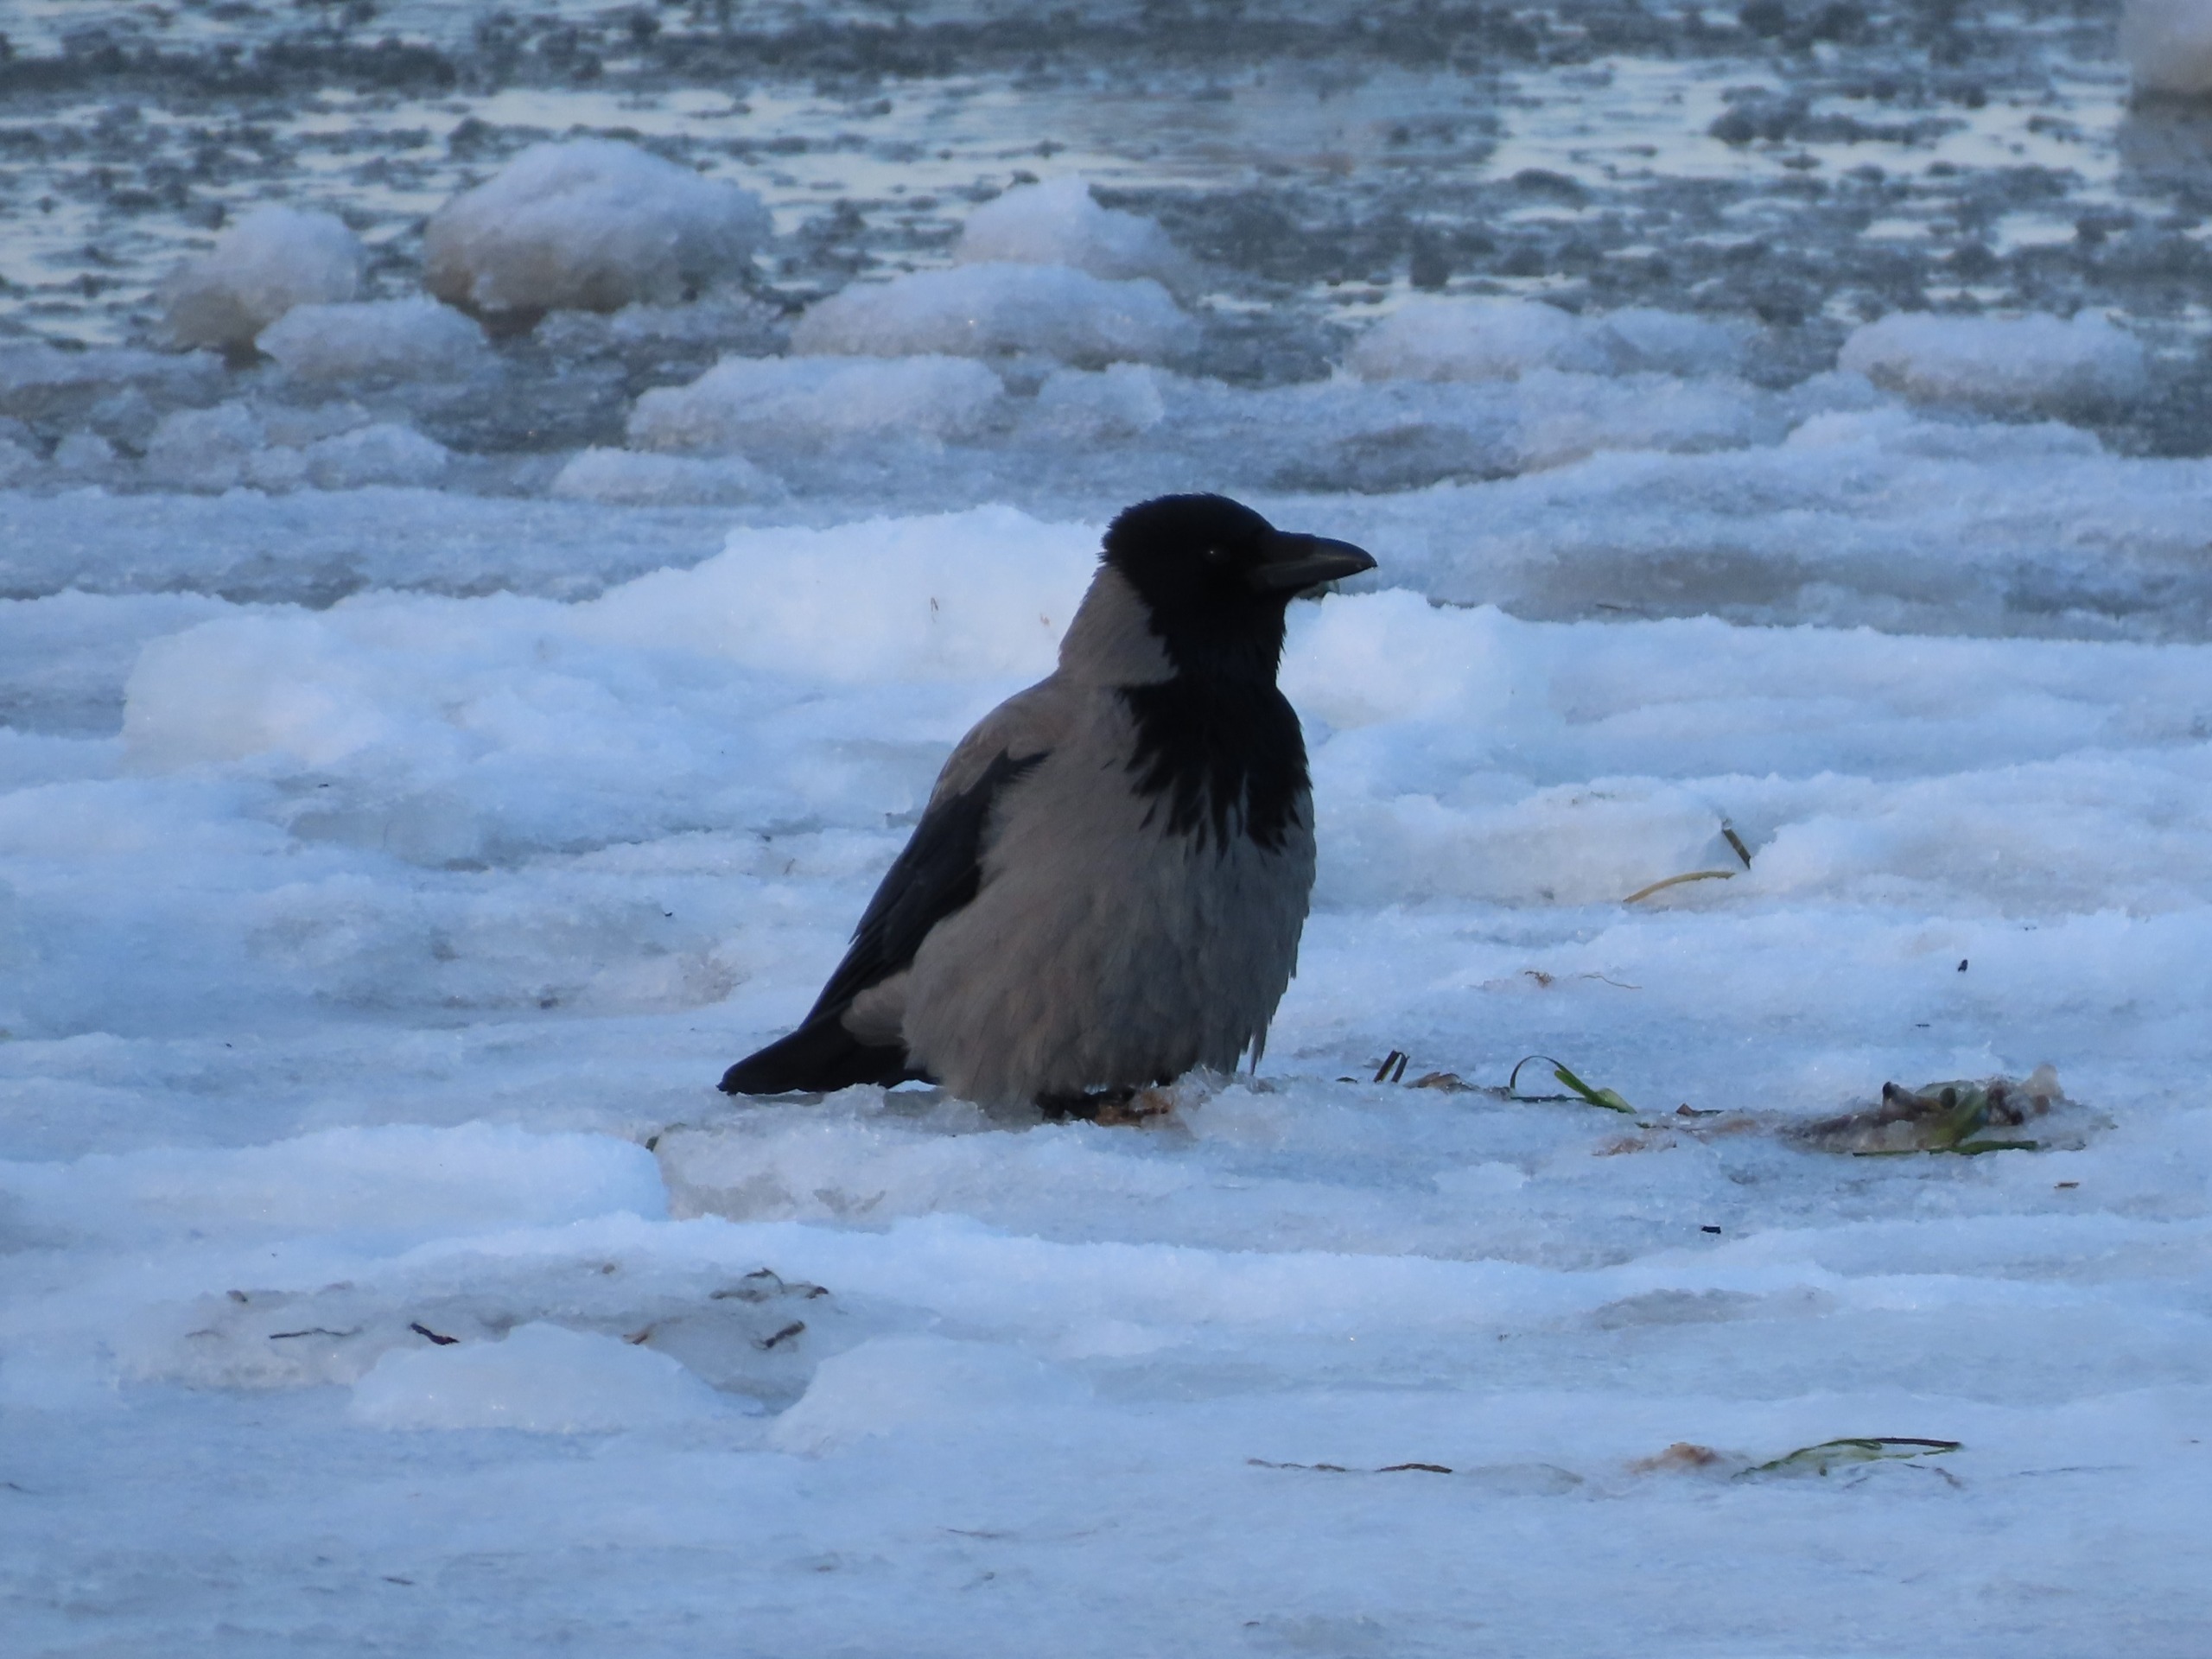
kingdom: Animalia
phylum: Chordata
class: Aves
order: Passeriformes
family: Corvidae
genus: Corvus
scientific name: Corvus cornix
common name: Gråkrage
